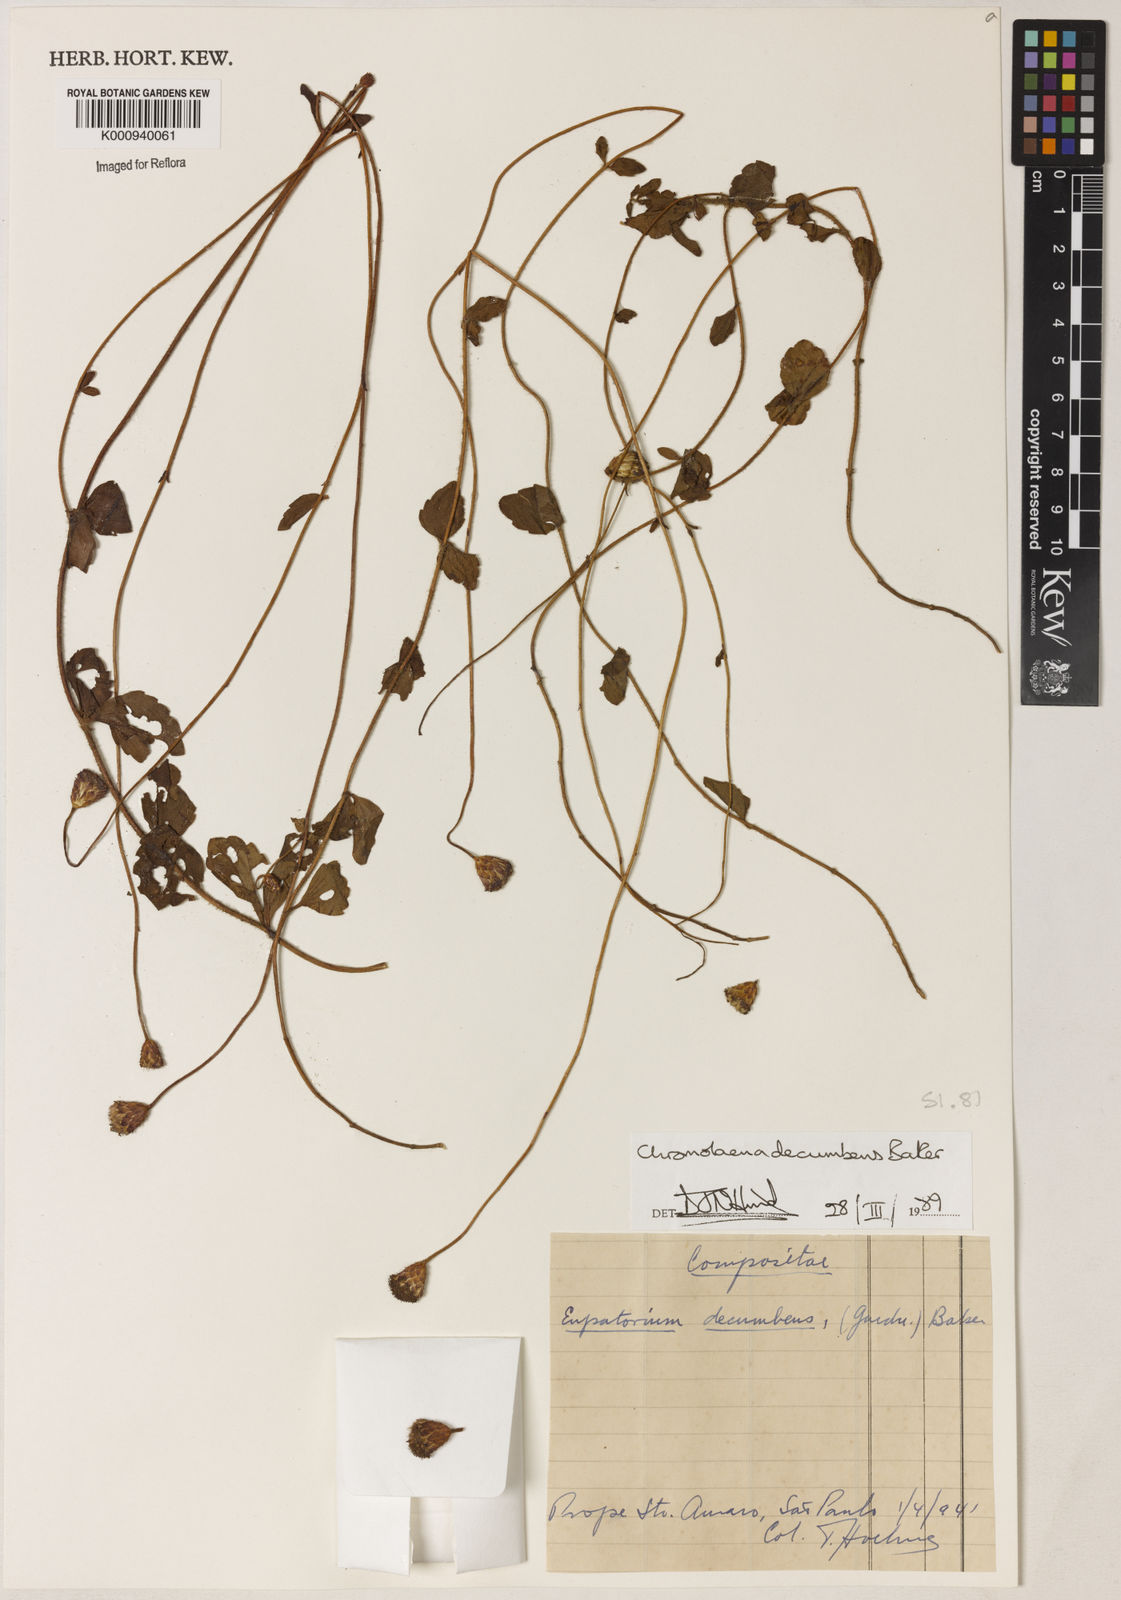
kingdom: Plantae
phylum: Tracheophyta
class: Magnoliopsida
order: Asterales
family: Asteraceae
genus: Praxelis
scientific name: Praxelis decumbens
